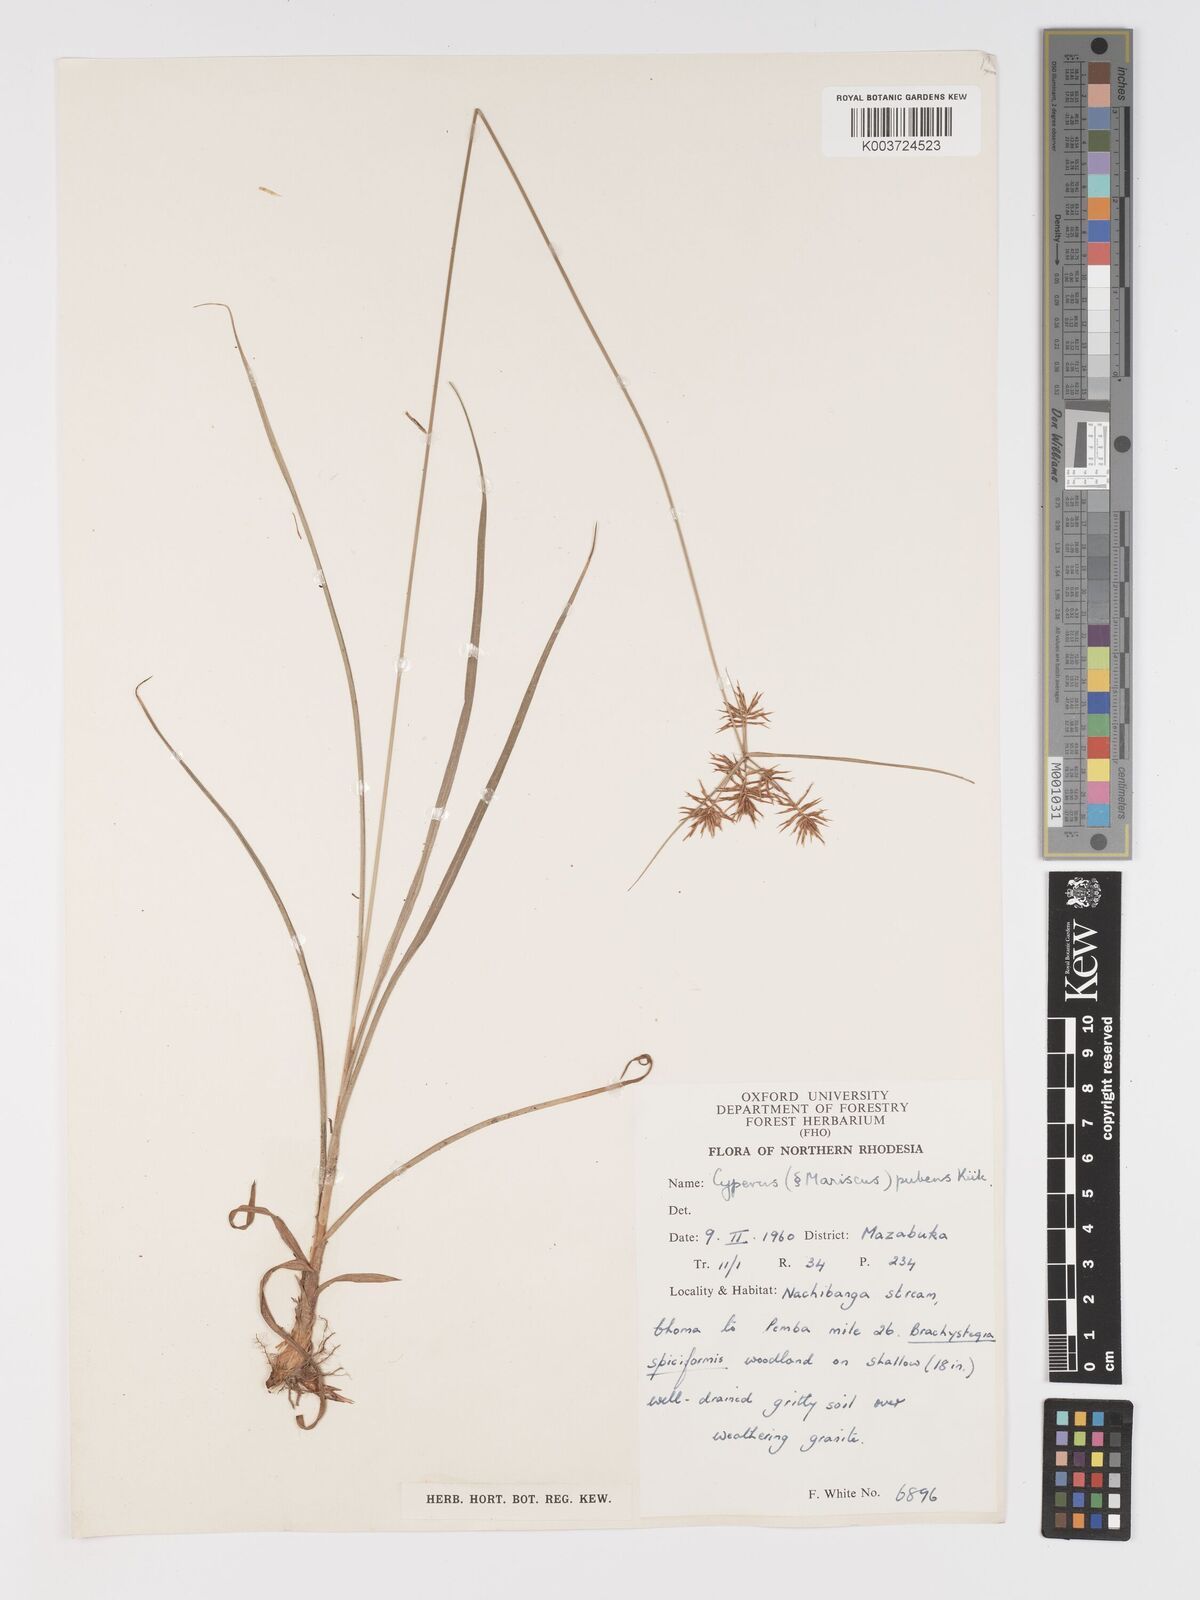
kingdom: Plantae
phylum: Tracheophyta
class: Liliopsida
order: Poales
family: Cyperaceae
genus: Cyperus
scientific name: Cyperus pubens
